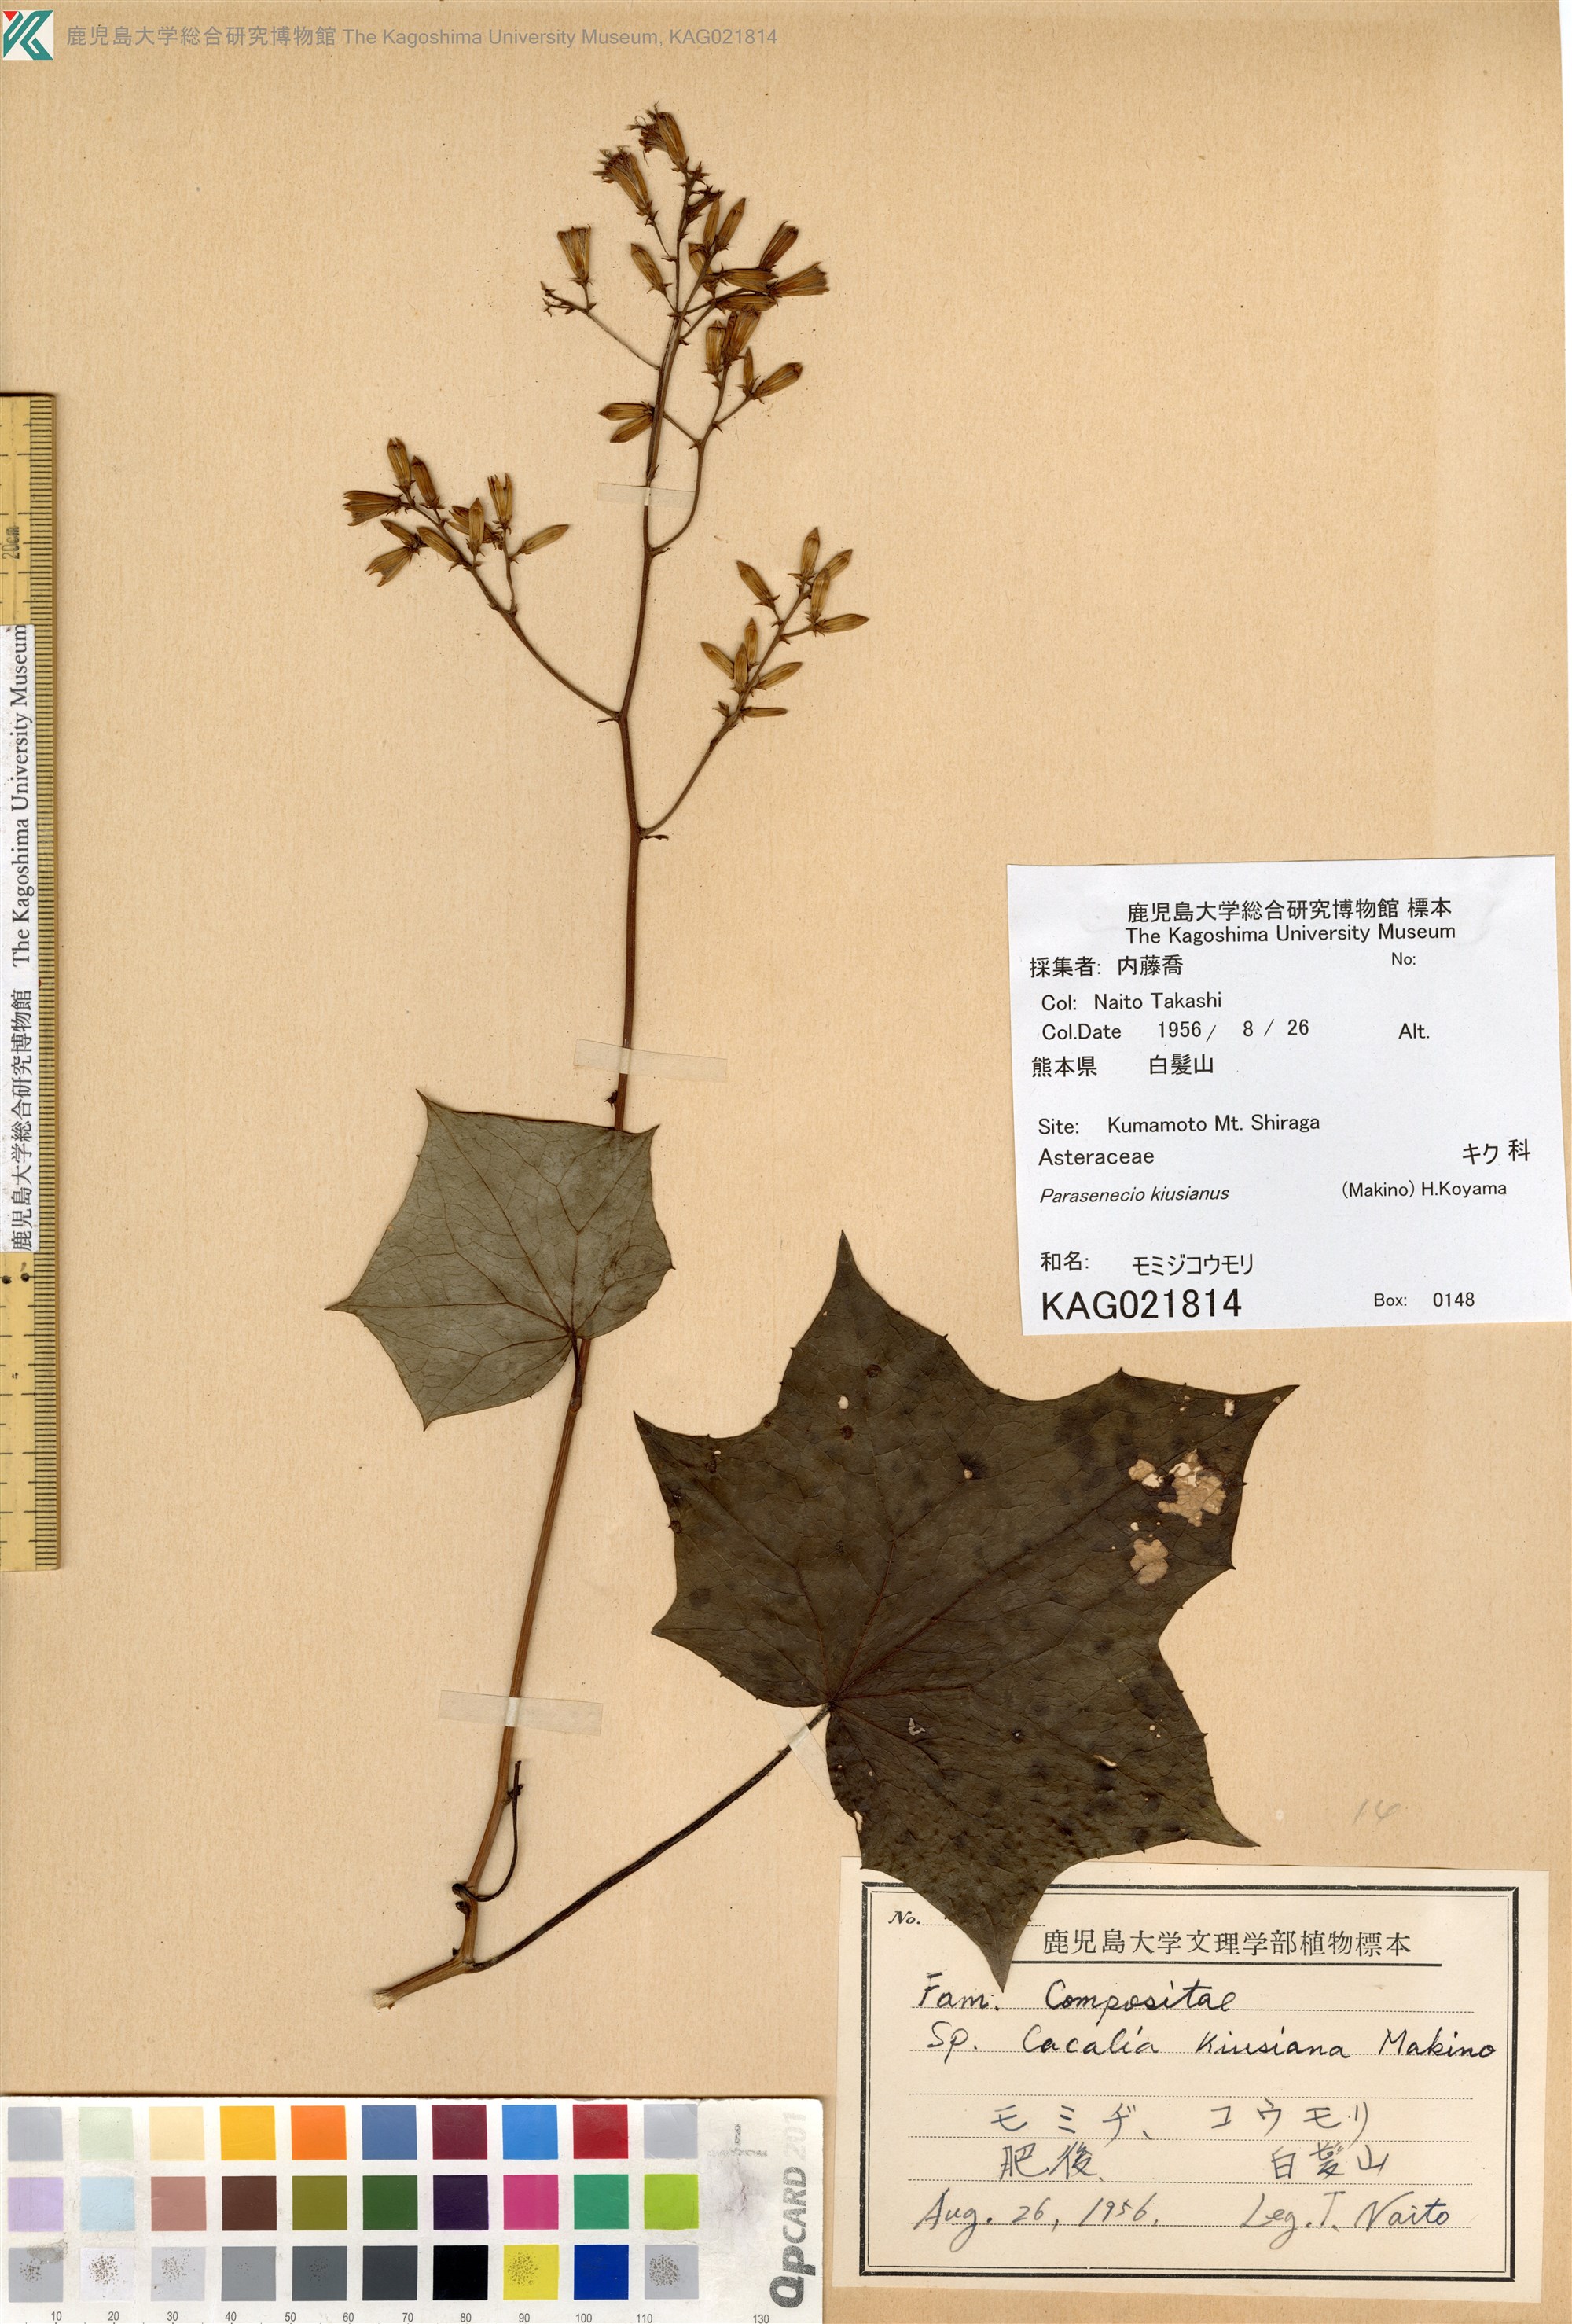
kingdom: Plantae
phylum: Tracheophyta
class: Magnoliopsida
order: Asterales
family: Asteraceae
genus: Japonicalia
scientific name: Japonicalia kiusiana
